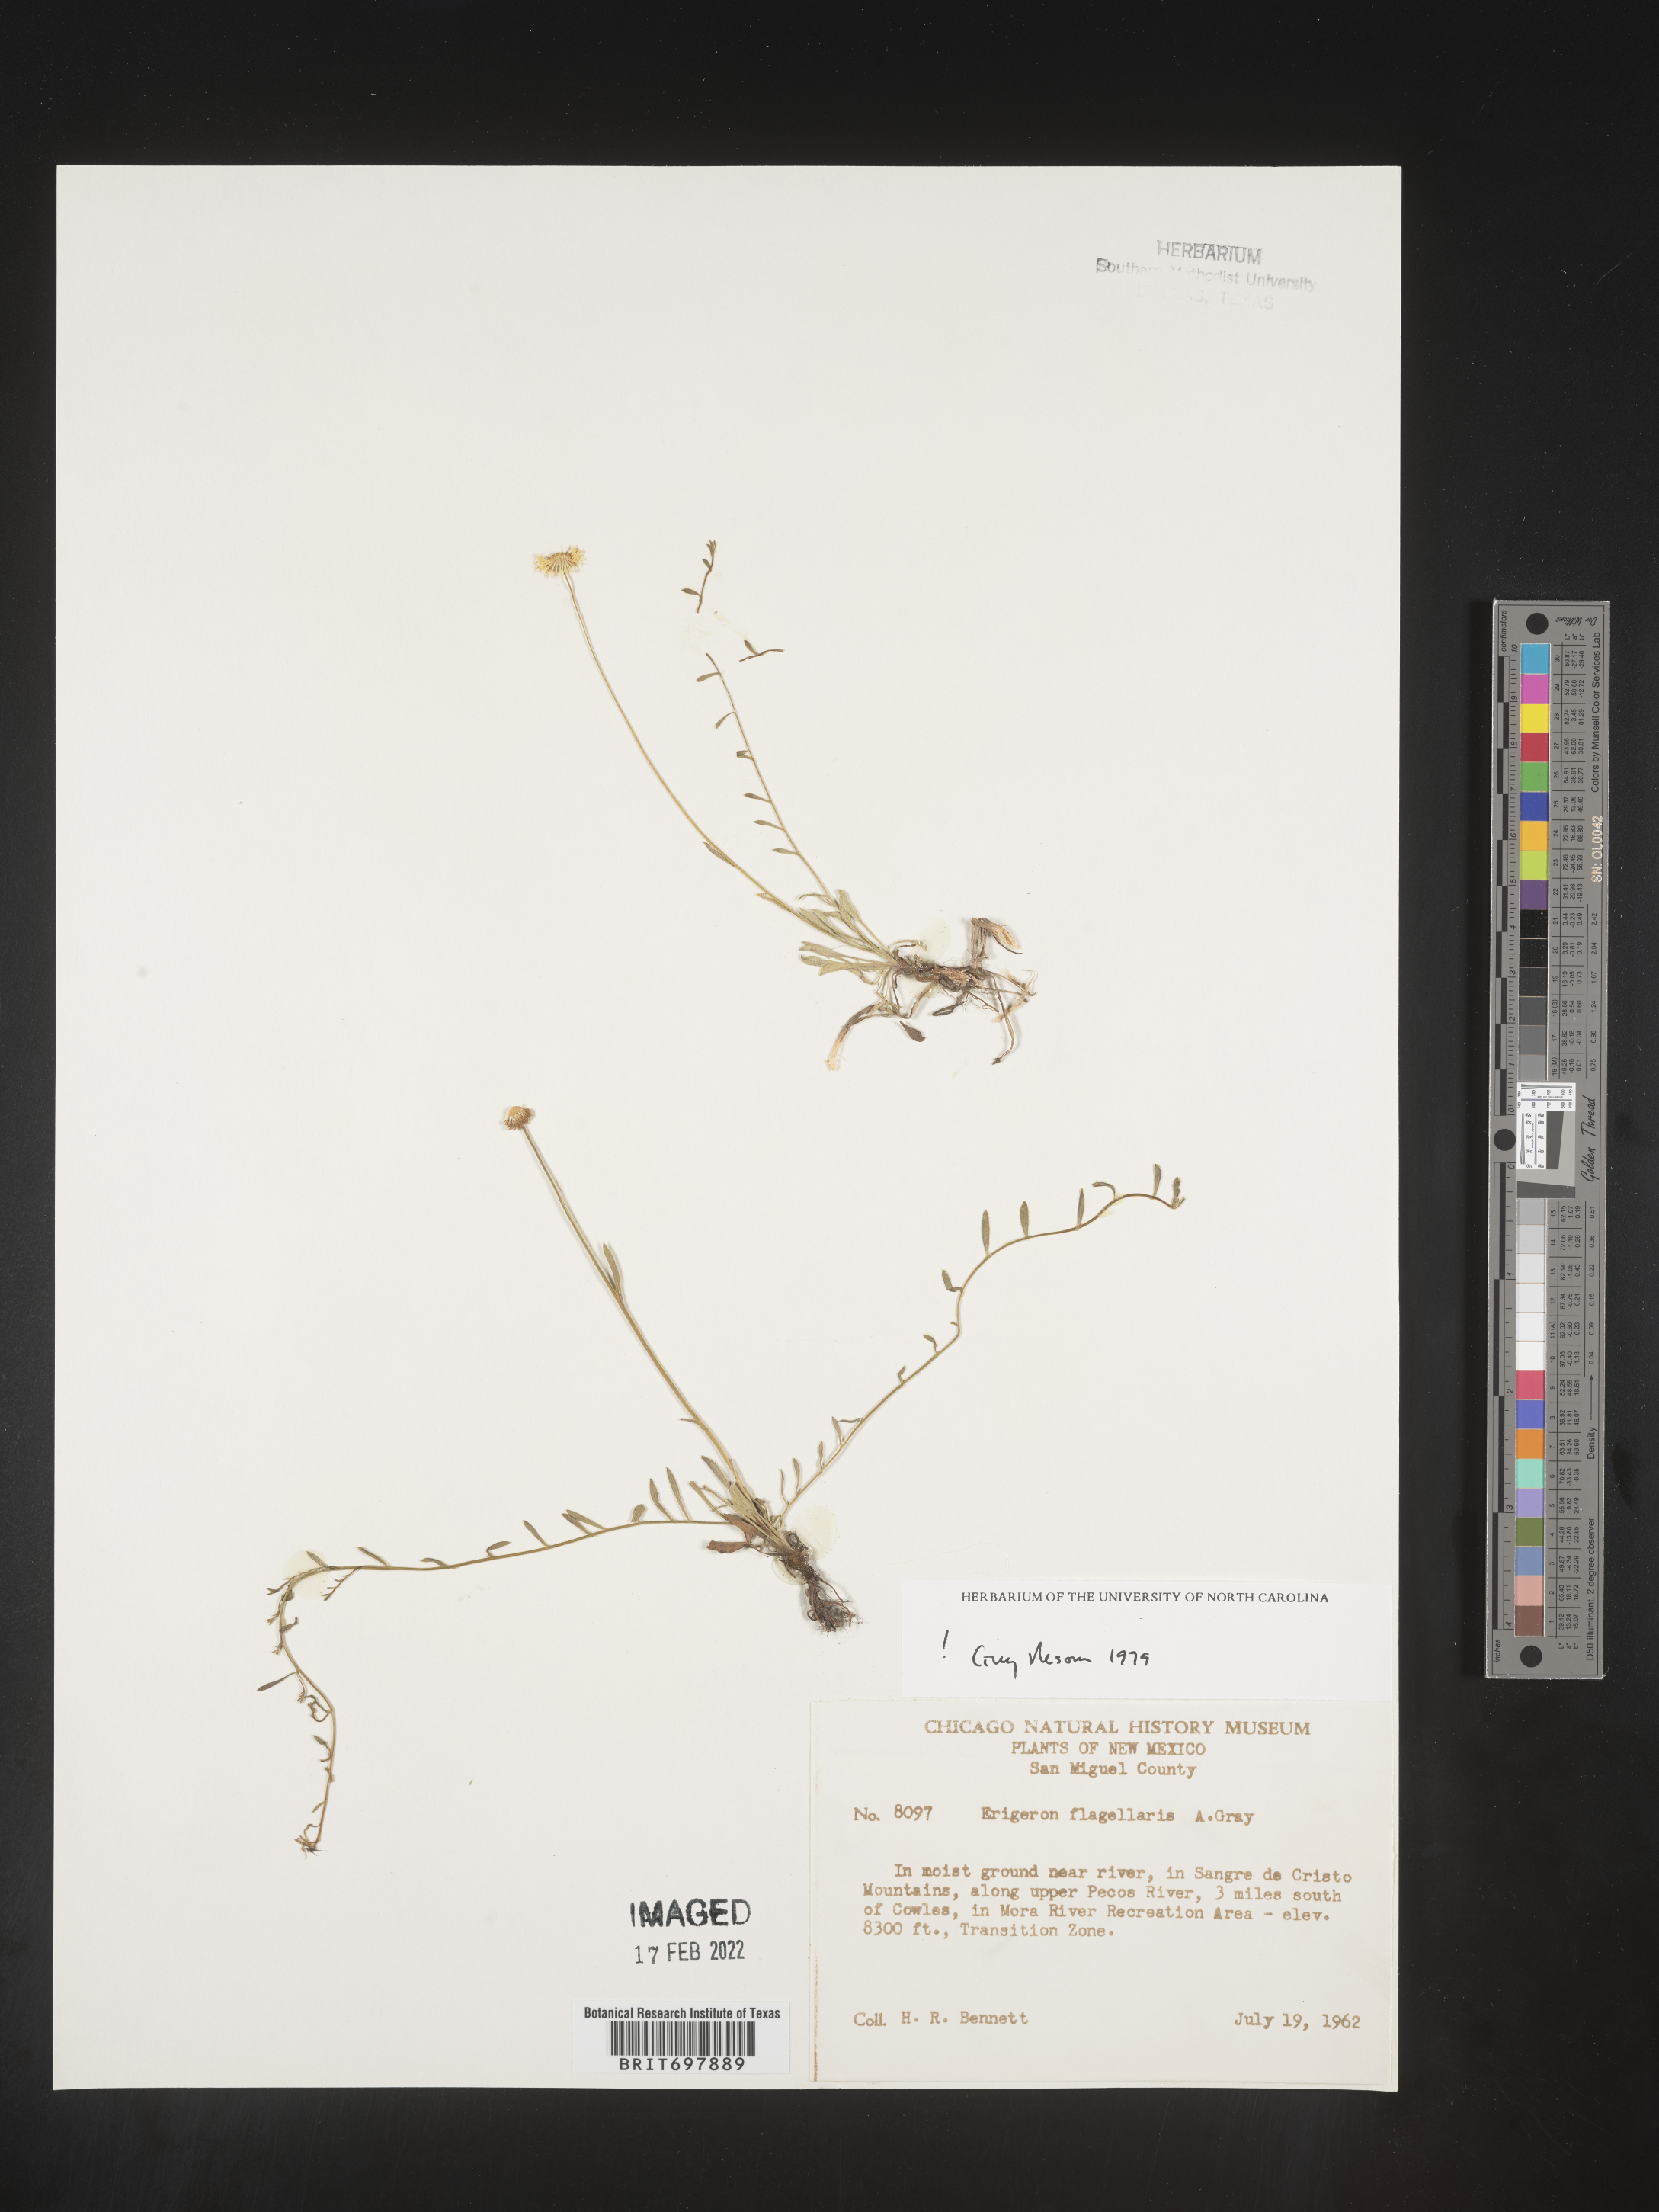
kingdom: Plantae
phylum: Tracheophyta
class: Magnoliopsida
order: Asterales
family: Asteraceae
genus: Erigeron
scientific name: Erigeron flagellaris
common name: Running fleabane
